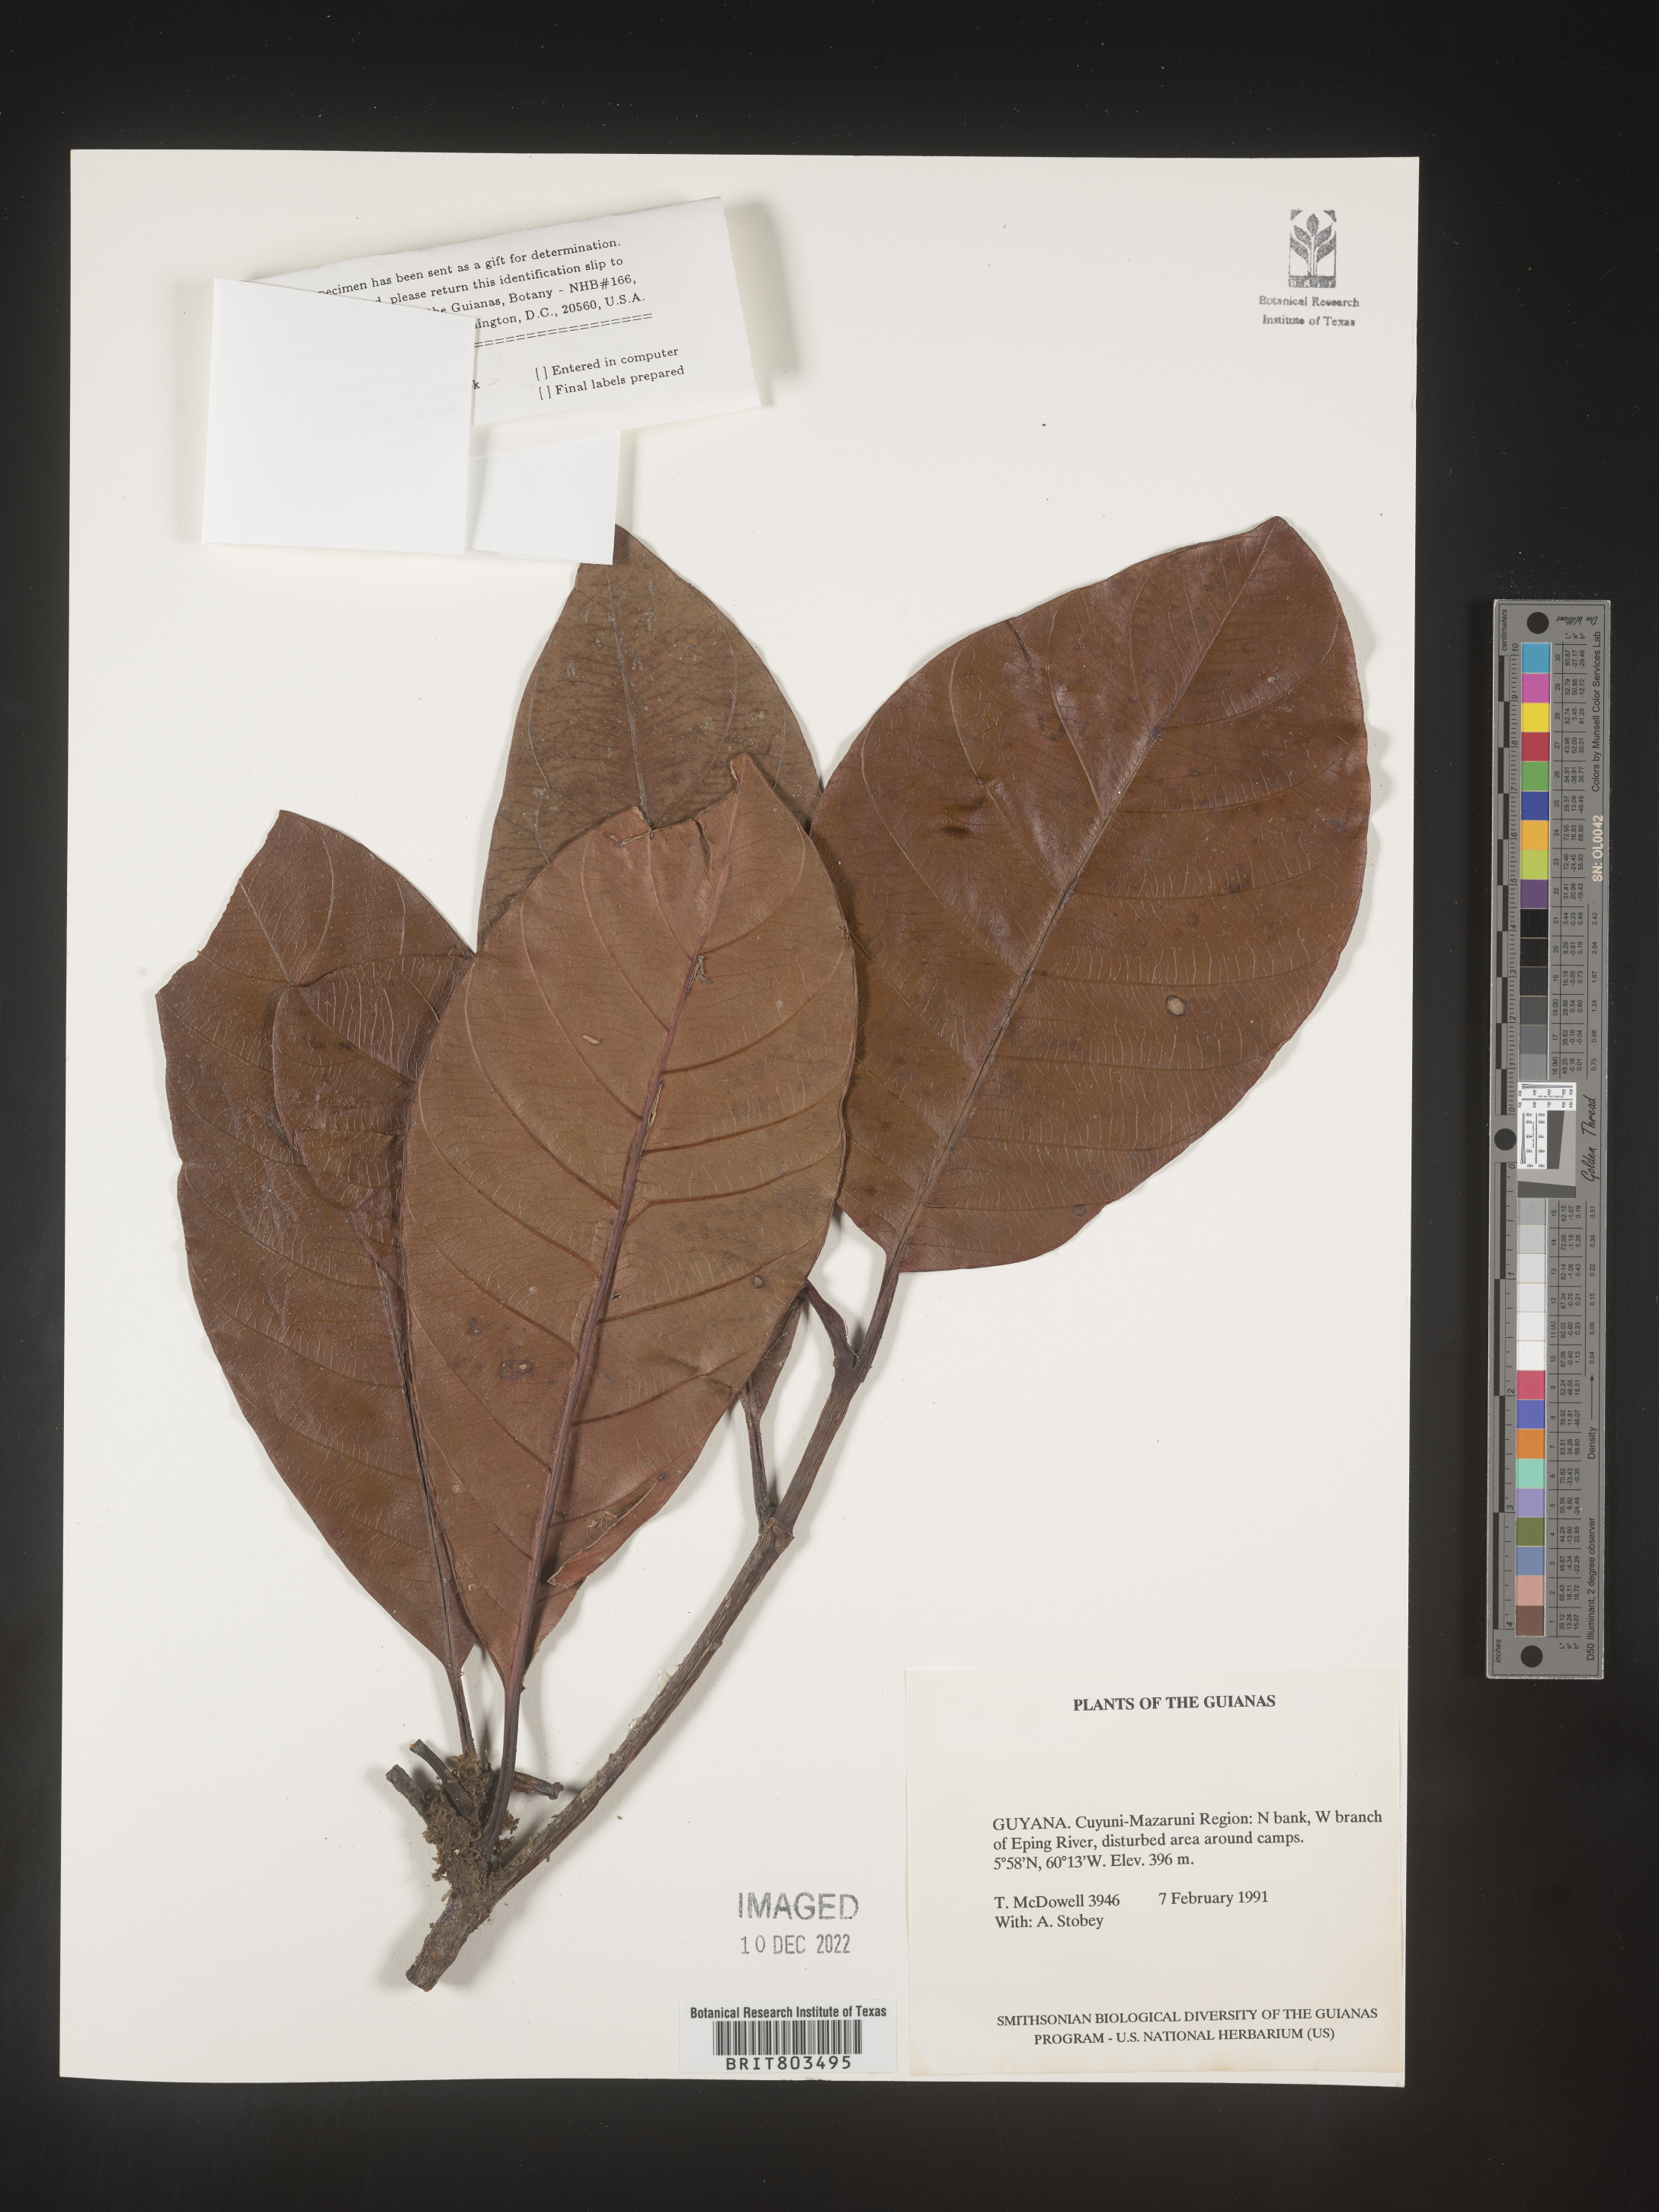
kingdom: Plantae
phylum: Tracheophyta
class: Magnoliopsida
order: Malpighiales
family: Clusiaceae
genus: Tovomita
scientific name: Tovomita
